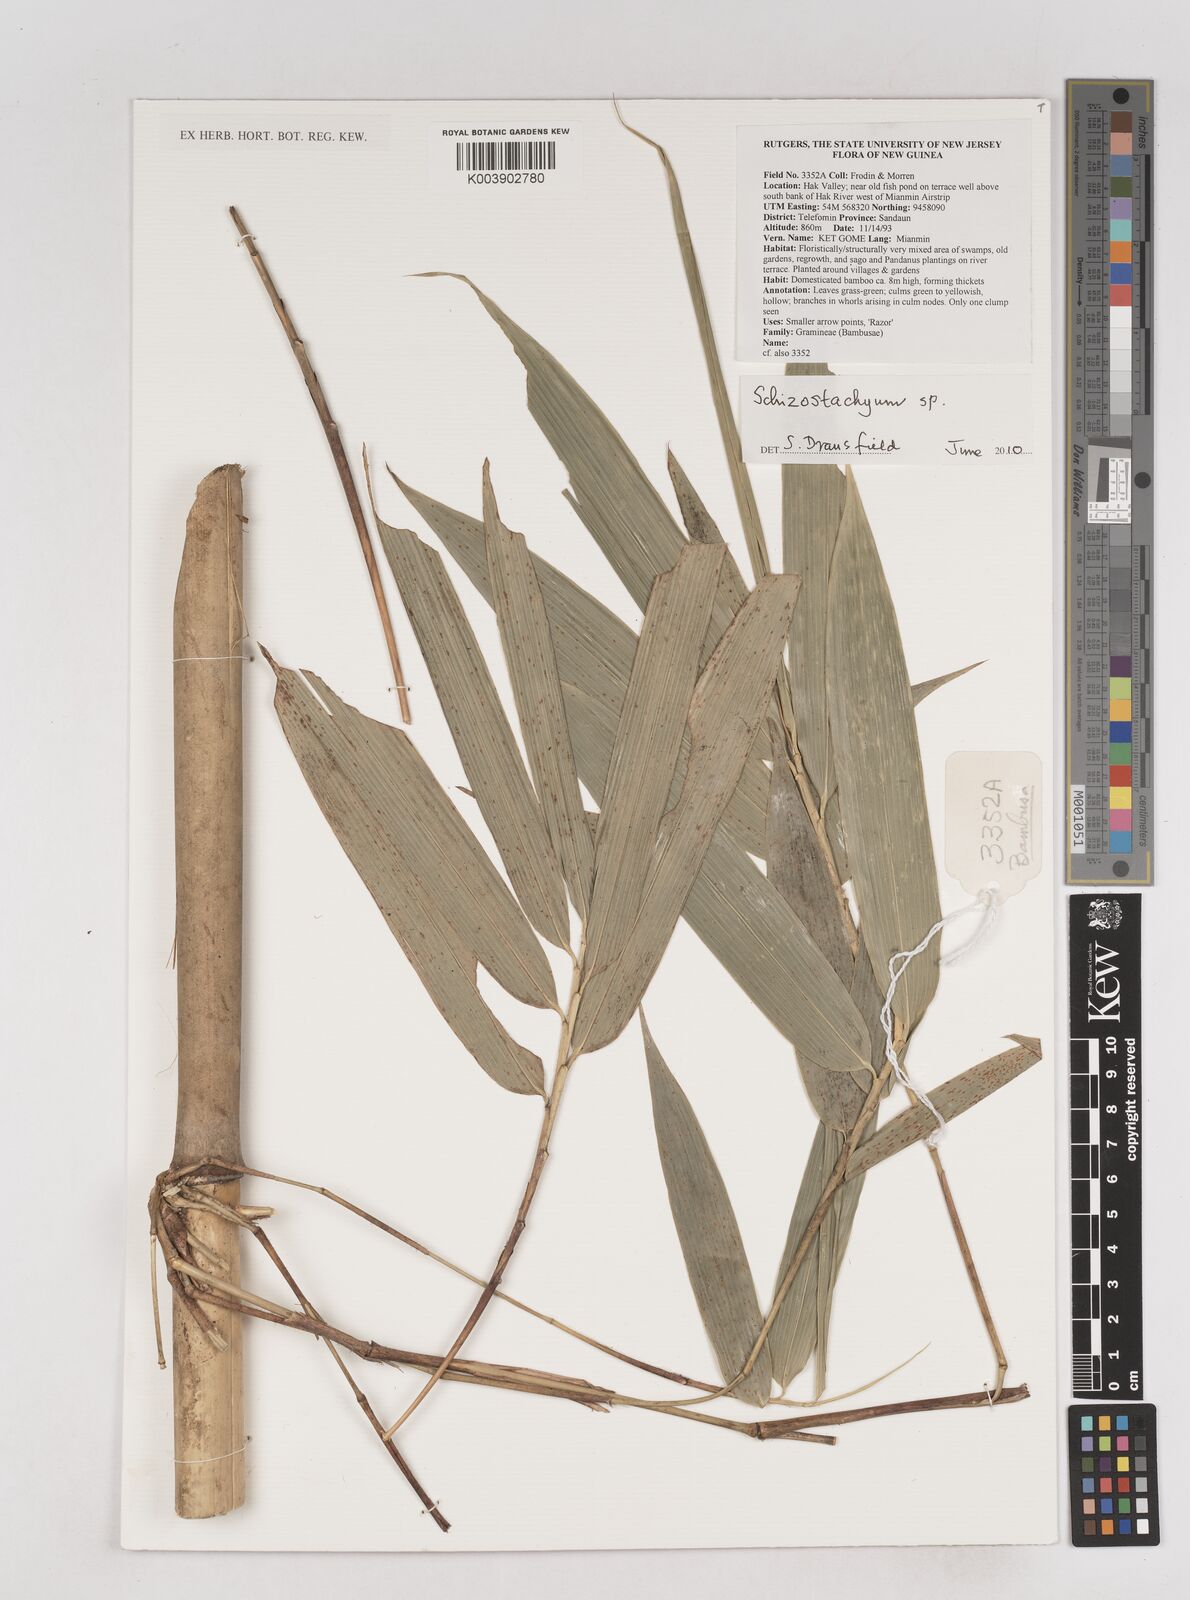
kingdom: Plantae
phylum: Tracheophyta
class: Liliopsida
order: Poales
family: Poaceae
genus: Schizostachyum
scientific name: Schizostachyum
